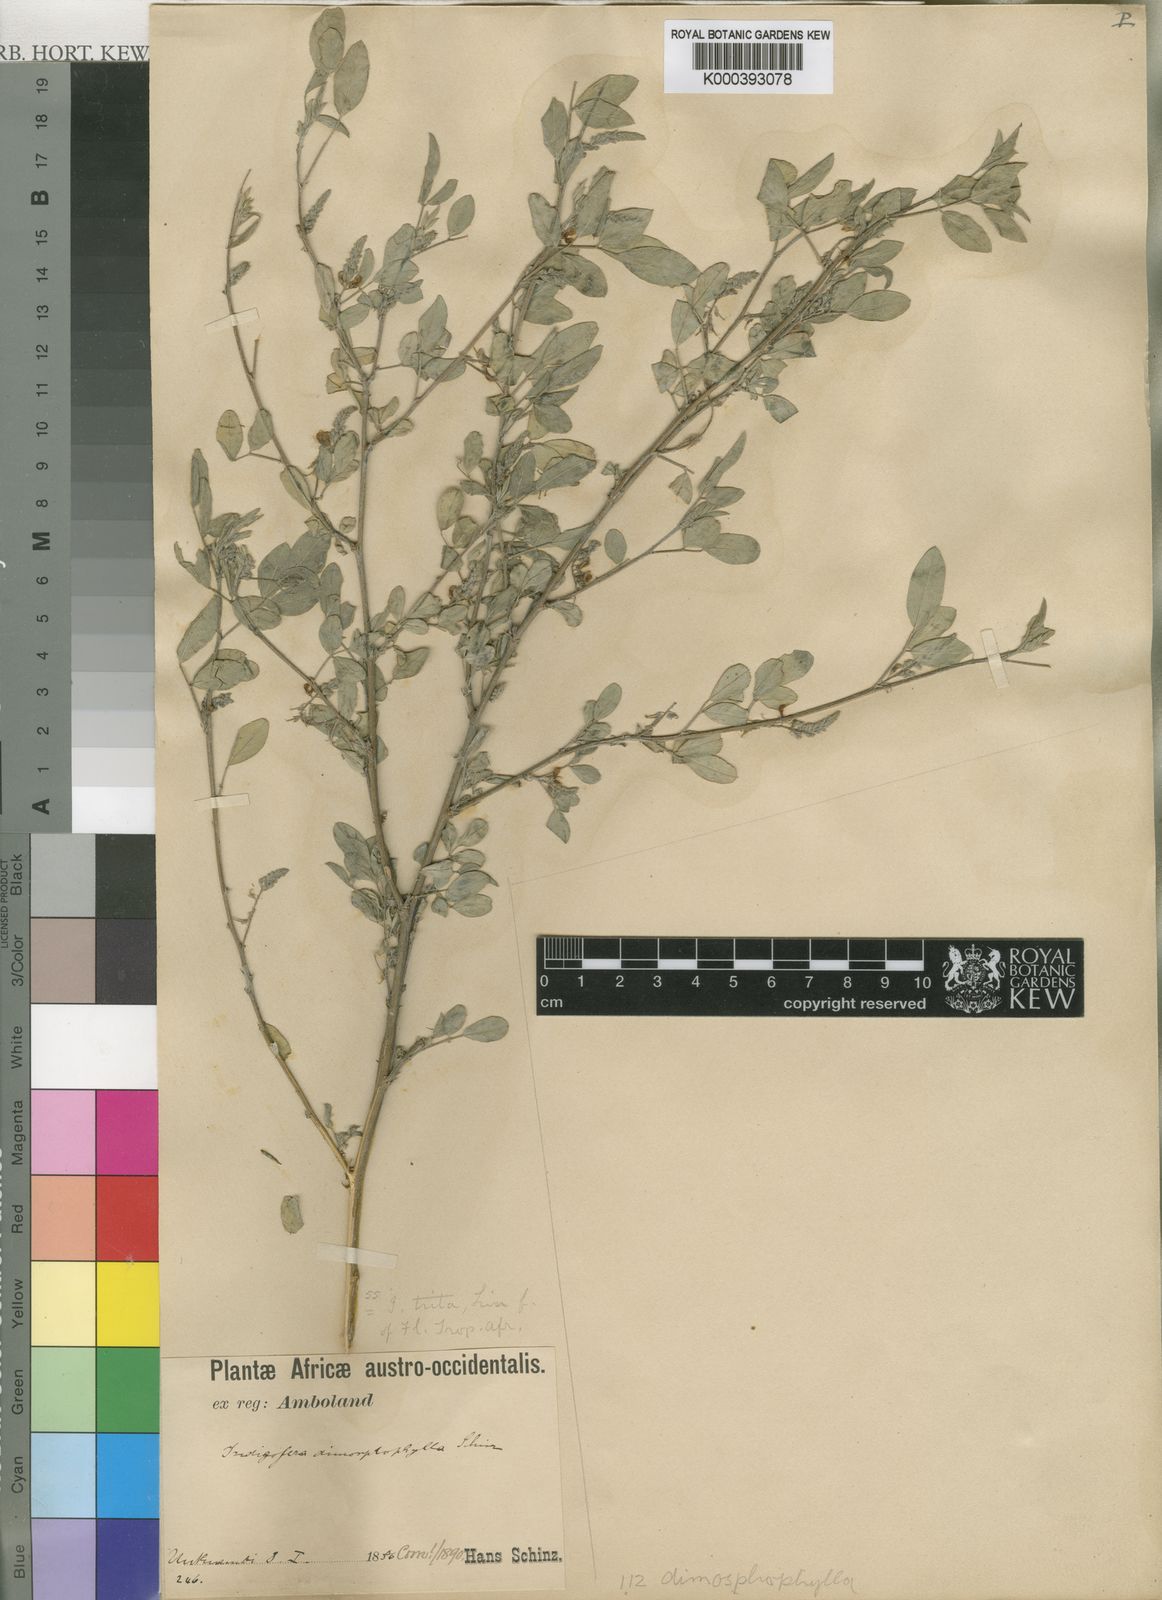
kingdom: Plantae
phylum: Tracheophyta
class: Magnoliopsida
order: Fabales
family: Fabaceae
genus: Indigofera
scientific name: Indigofera subulata
